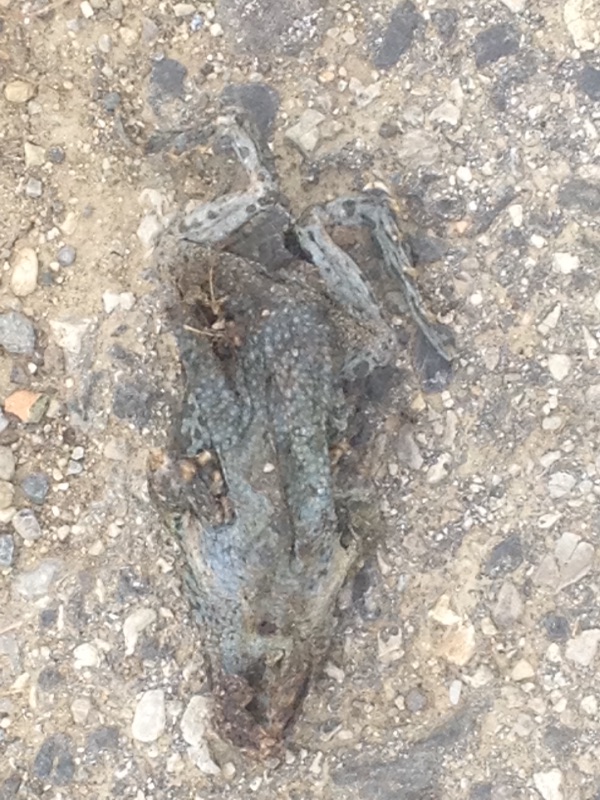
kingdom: Animalia
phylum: Chordata
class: Amphibia
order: Anura
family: Bufonidae
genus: Bufotes
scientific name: Bufotes viridis
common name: European green toad
